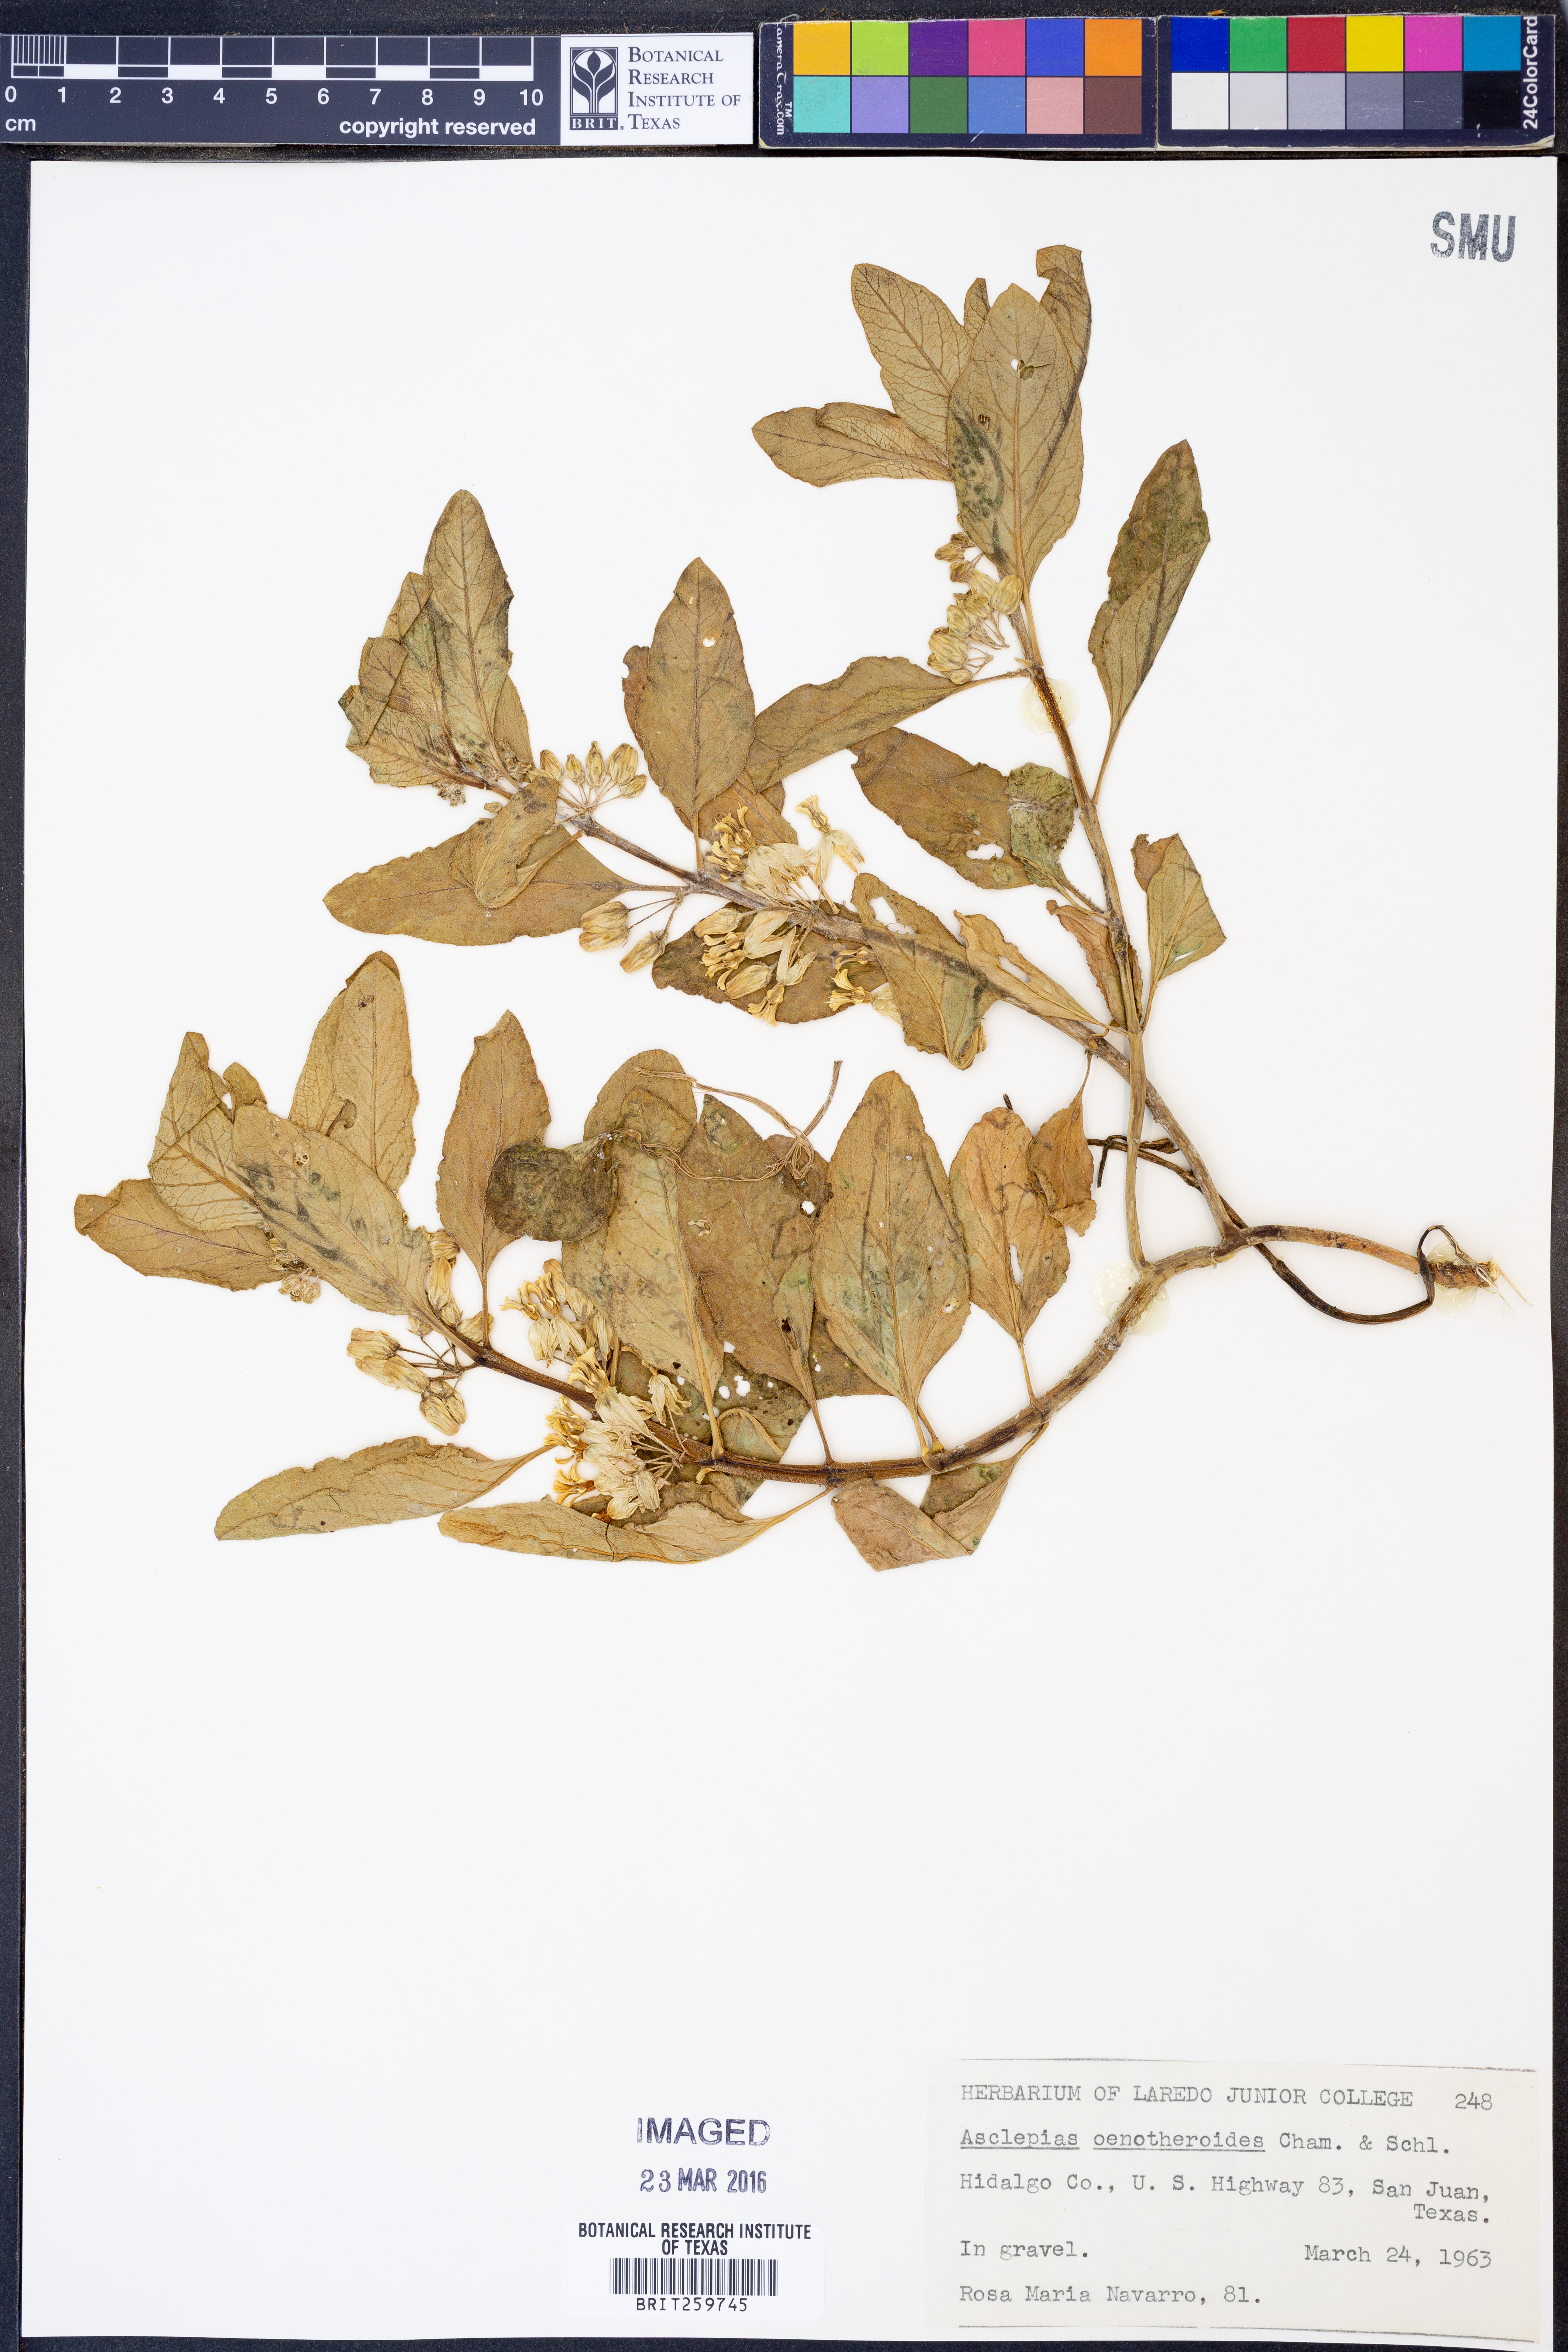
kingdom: Plantae
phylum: Tracheophyta
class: Magnoliopsida
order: Gentianales
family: Apocynaceae
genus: Asclepias
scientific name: Asclepias oenotheroides
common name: Zizotes milkweed
